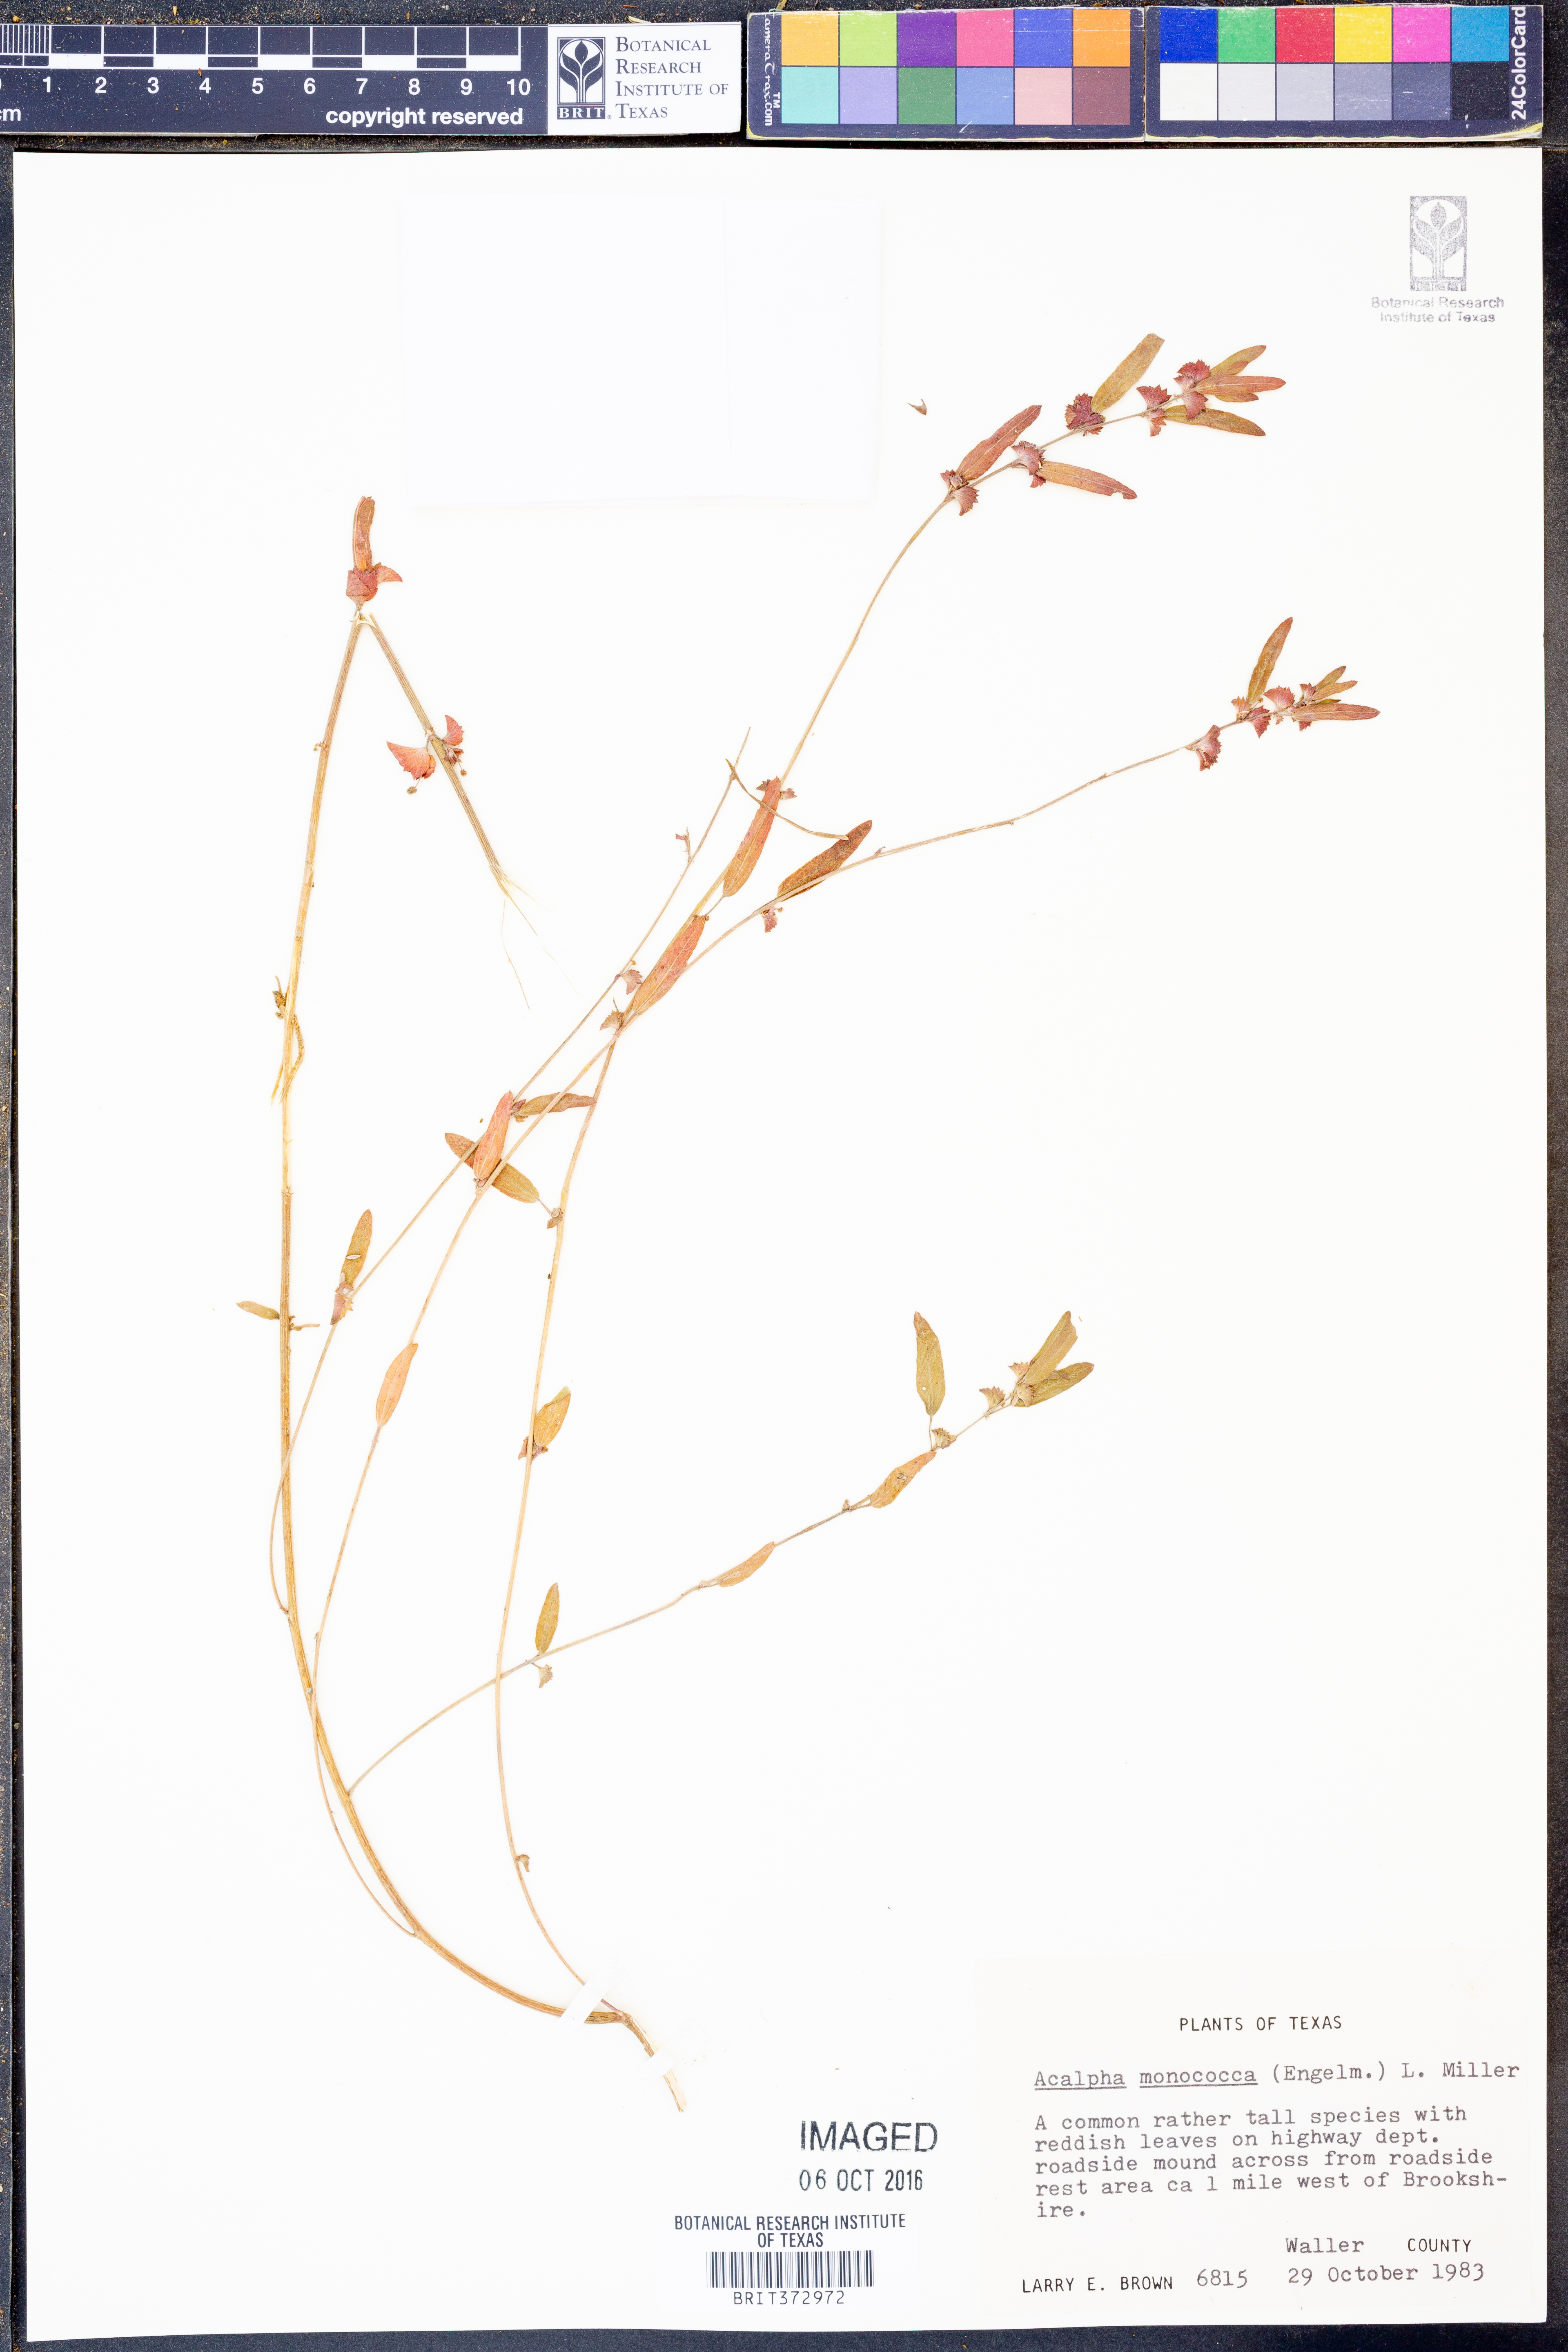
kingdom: Plantae
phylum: Tracheophyta
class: Magnoliopsida
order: Malpighiales
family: Euphorbiaceae
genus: Acalypha
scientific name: Acalypha monococca
